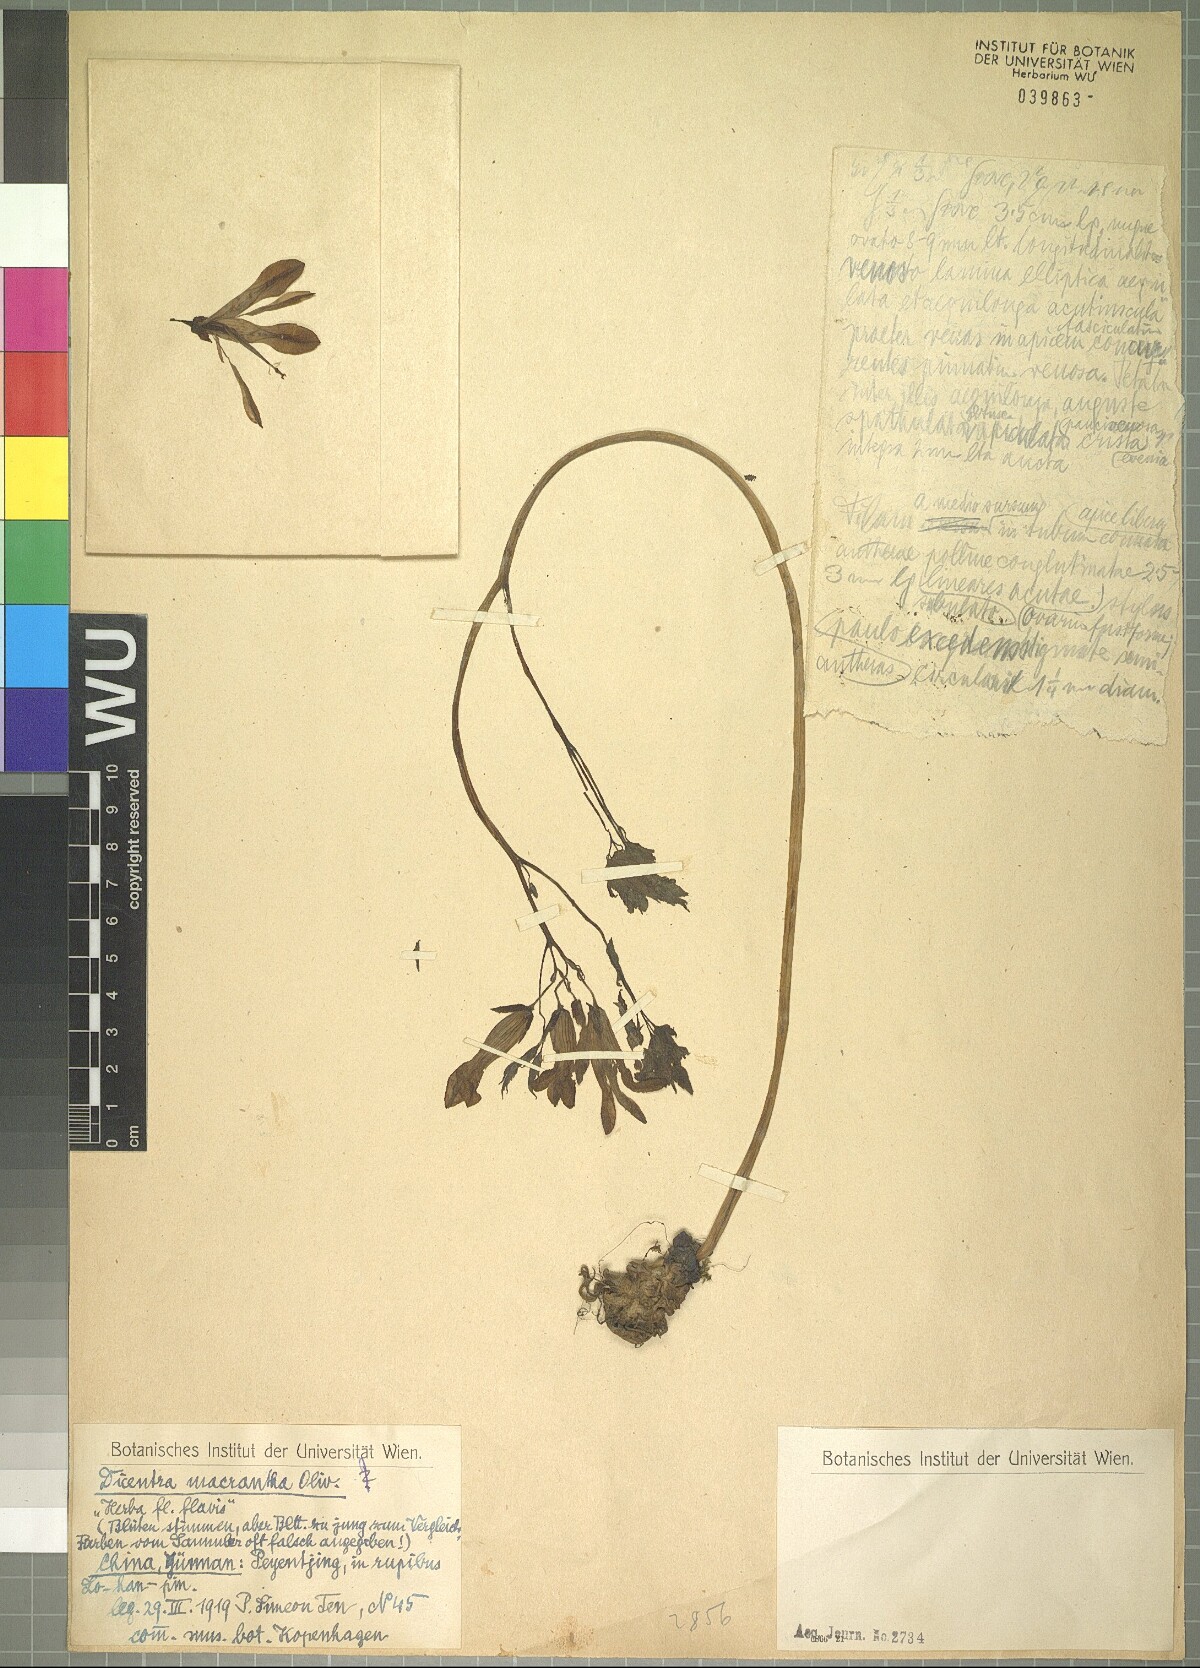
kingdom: Plantae
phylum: Tracheophyta
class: Magnoliopsida
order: Ranunculales
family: Papaveraceae
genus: Ichtyoselmis
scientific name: Ichtyoselmis macrantha
